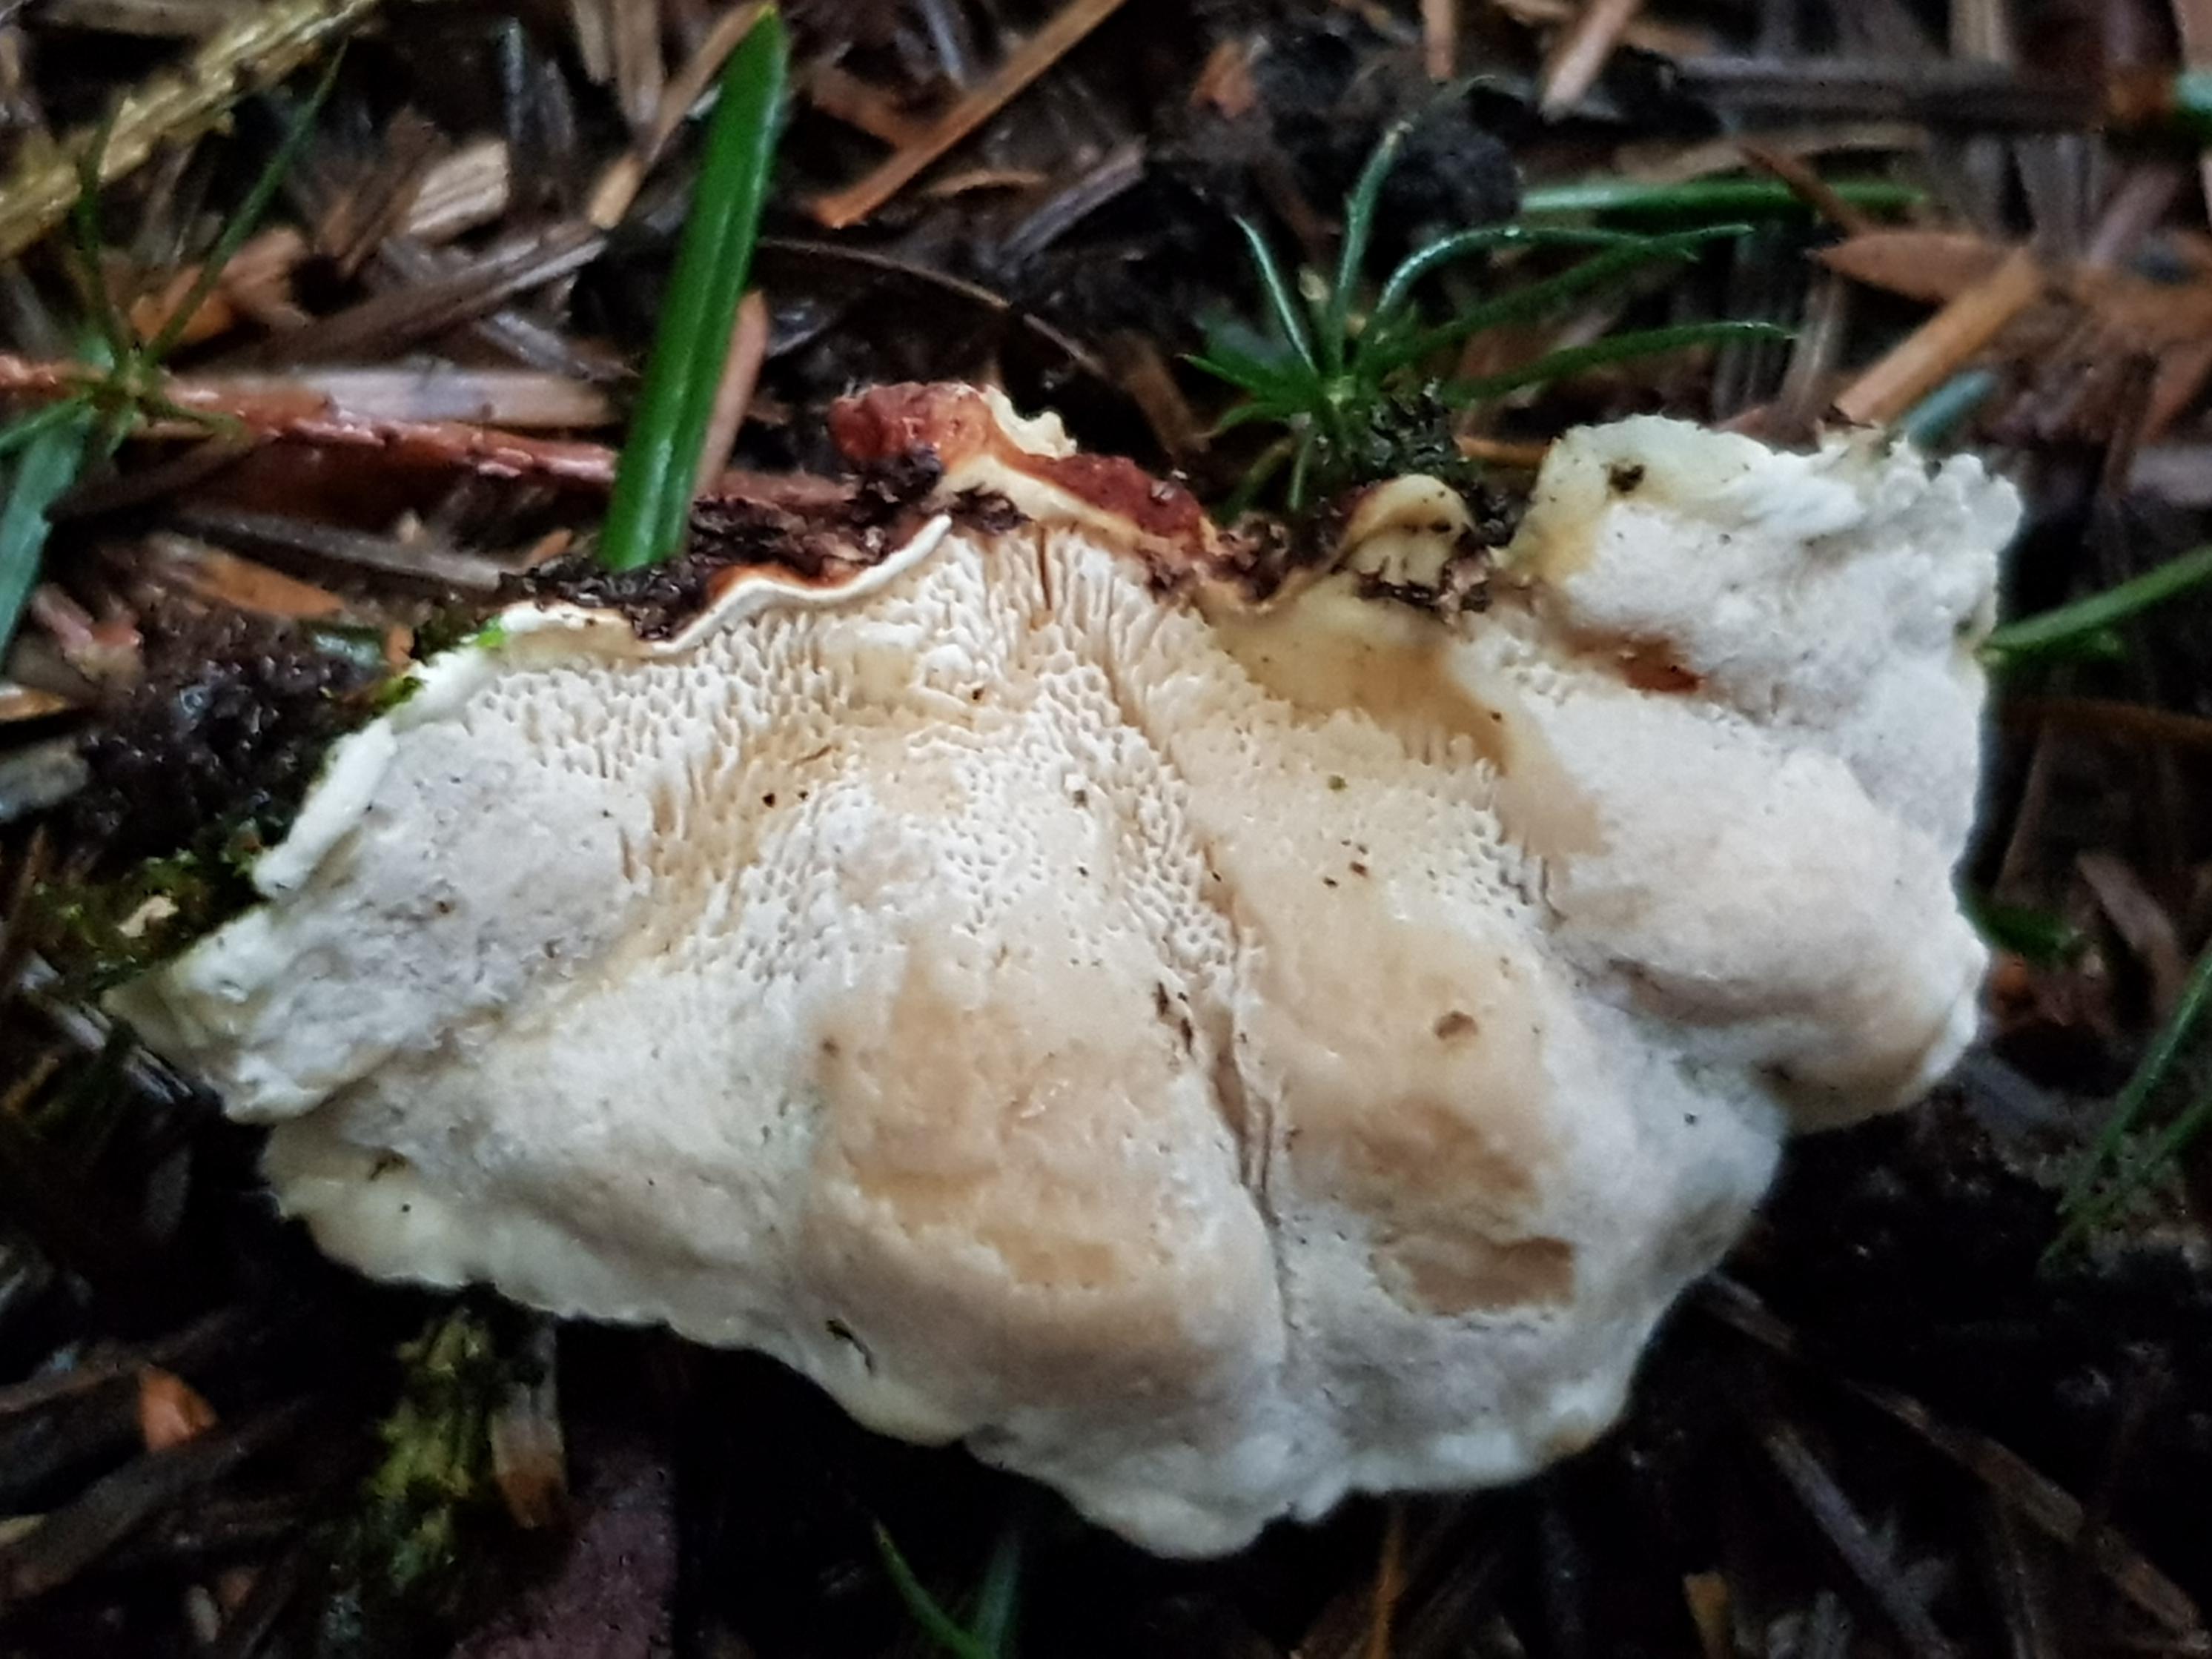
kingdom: Fungi
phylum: Basidiomycota
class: Agaricomycetes
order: Russulales
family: Bondarzewiaceae
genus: Heterobasidion
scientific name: Heterobasidion annosum
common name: almindelig rodfordærver
